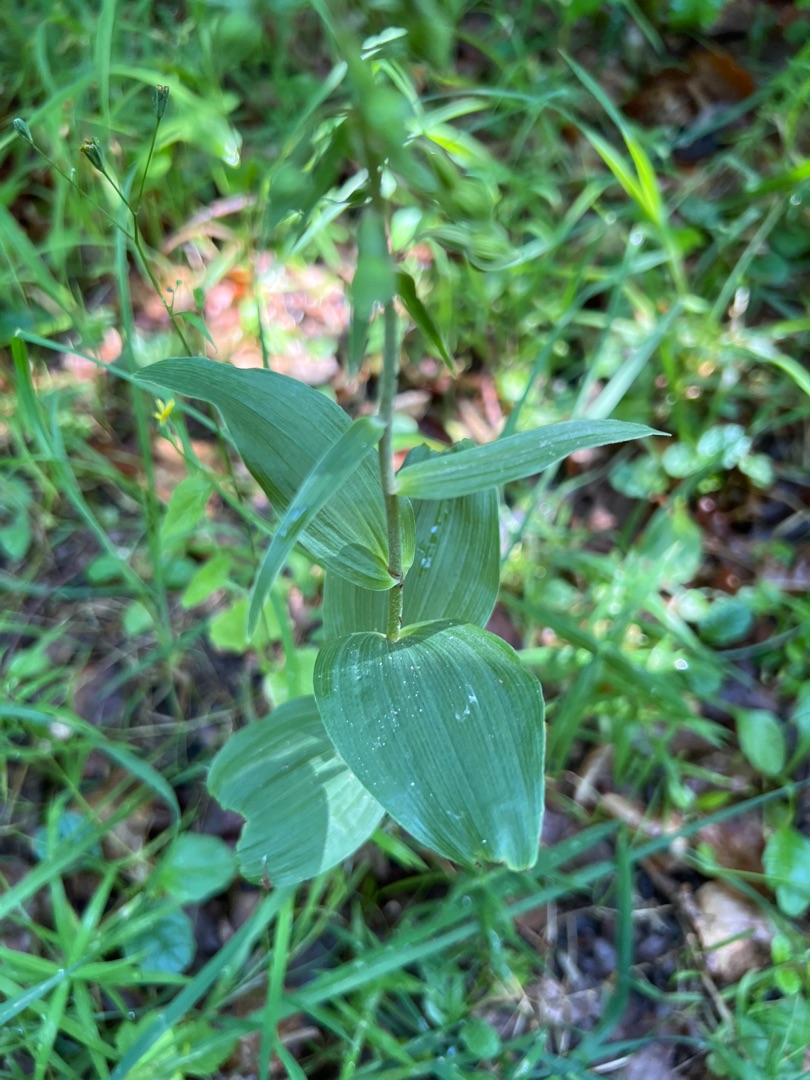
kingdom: Plantae
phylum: Tracheophyta
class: Liliopsida
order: Asparagales
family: Orchidaceae
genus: Epipactis
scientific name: Epipactis helleborine
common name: Skov-hullæbe
